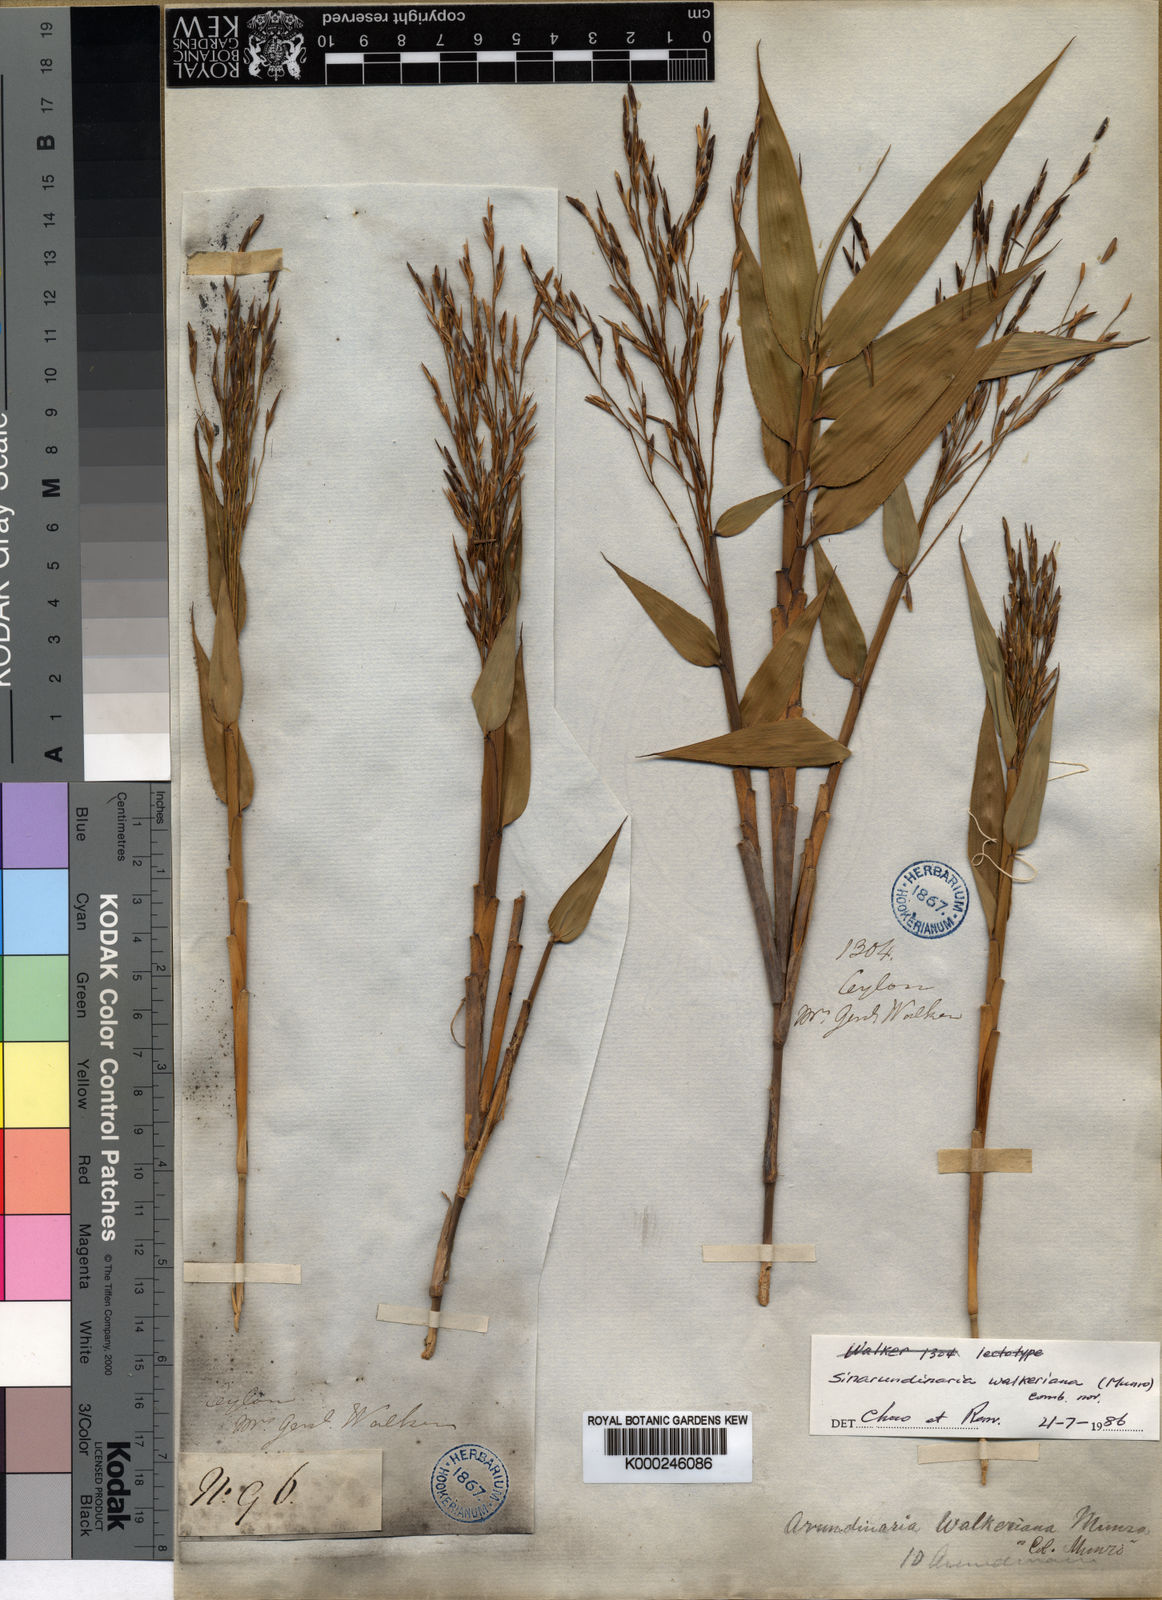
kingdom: Plantae
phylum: Tracheophyta
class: Liliopsida
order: Poales
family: Poaceae
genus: Kuruna
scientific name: Kuruna walkeriana
